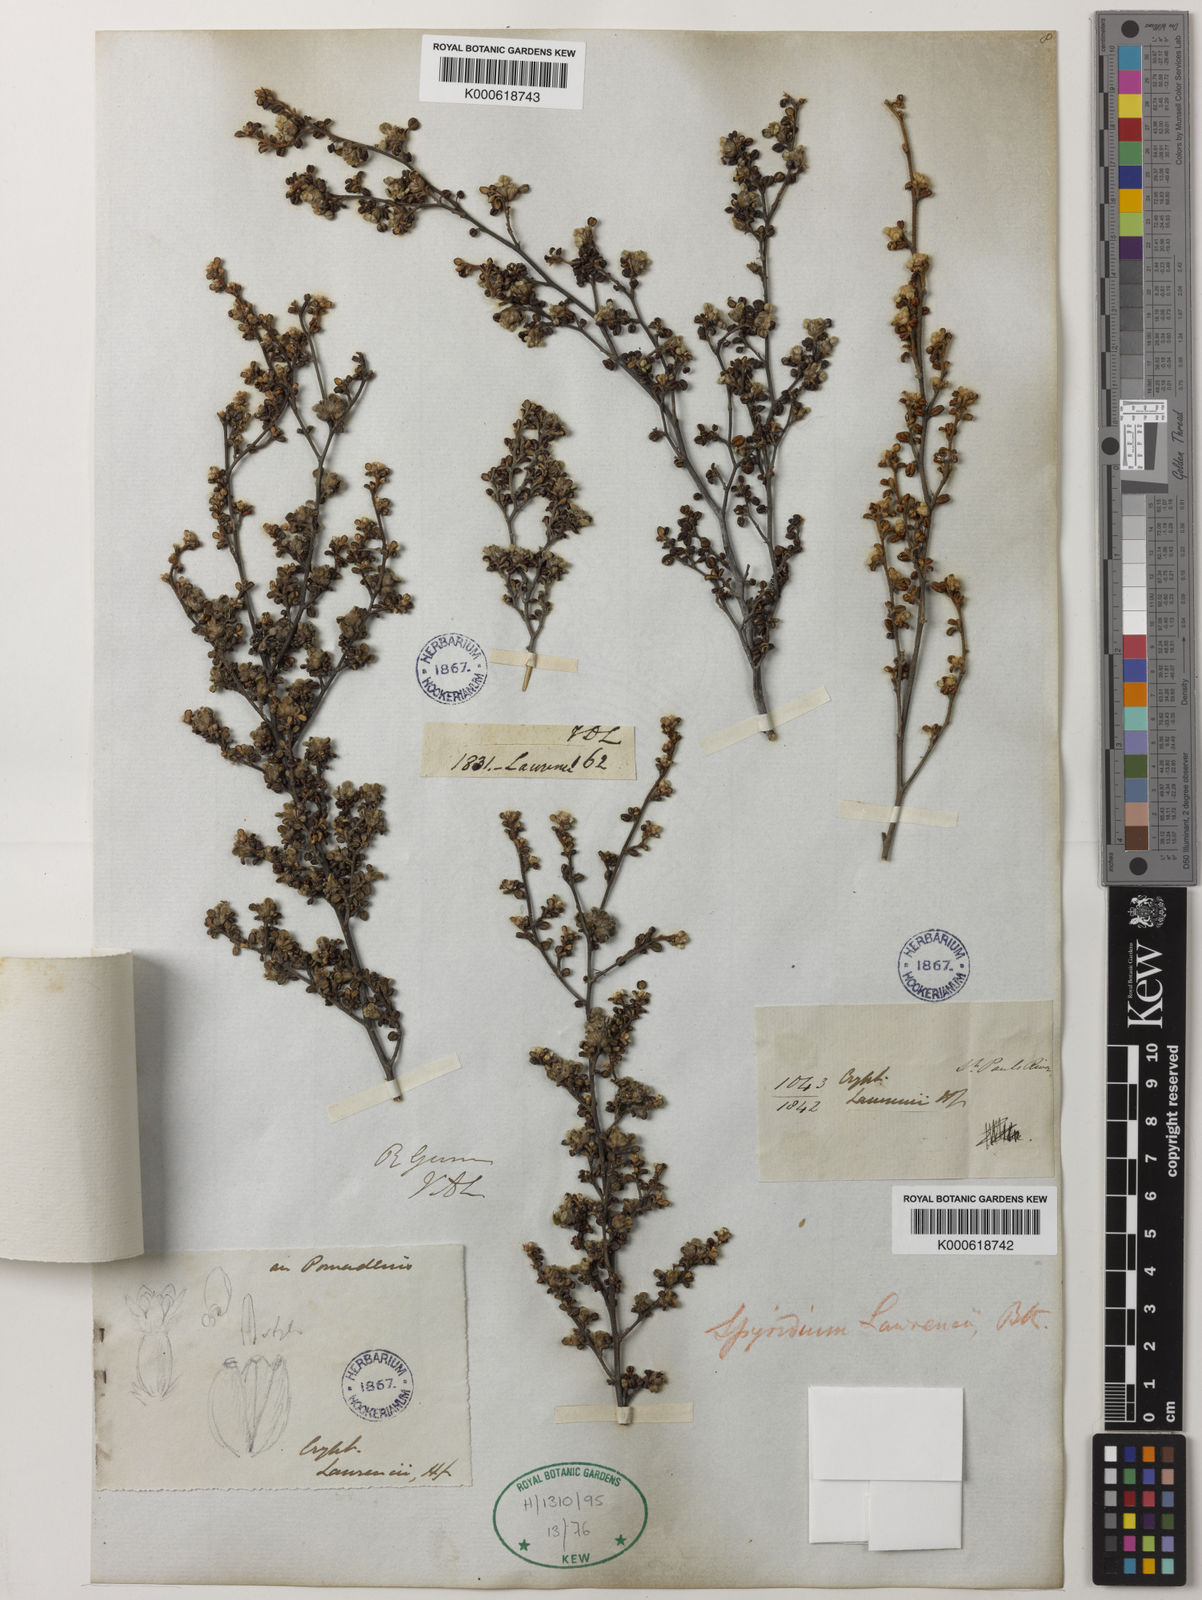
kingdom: Plantae
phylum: Tracheophyta
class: Magnoliopsida
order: Rosales
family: Rhamnaceae
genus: Spyridium
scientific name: Spyridium
